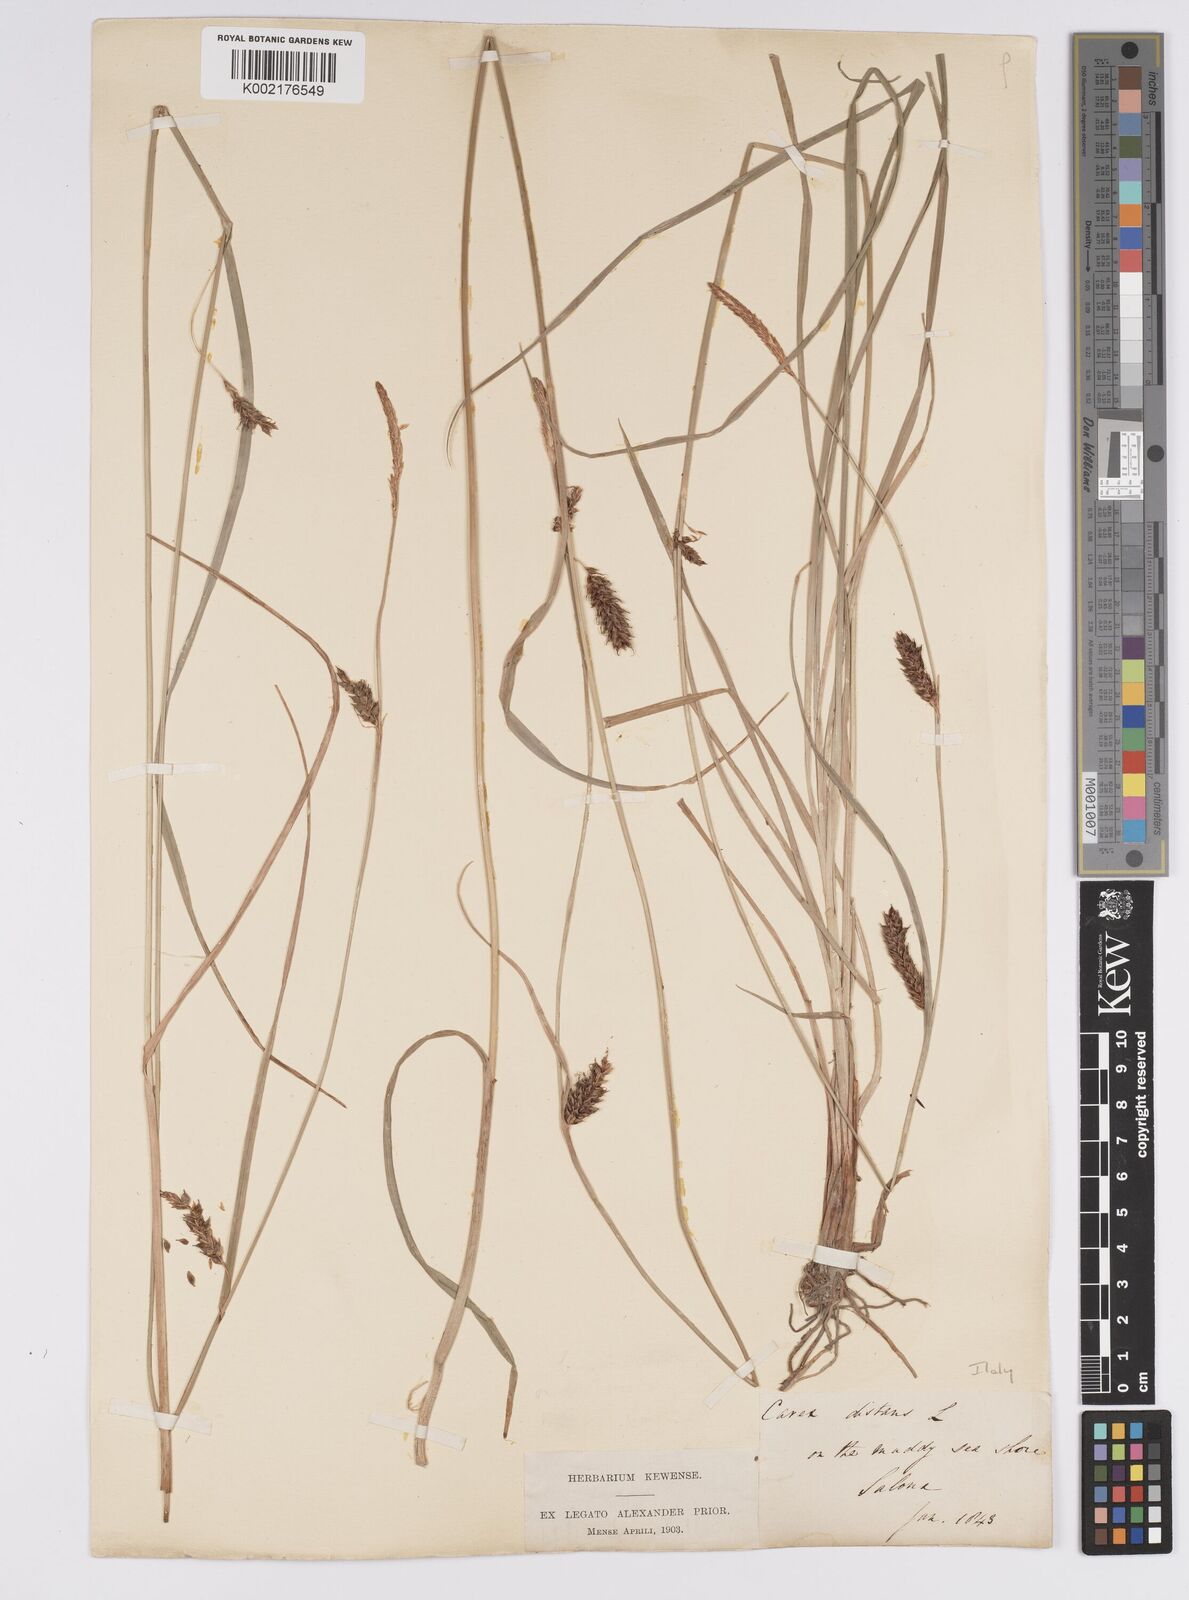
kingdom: Plantae
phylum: Tracheophyta
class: Liliopsida
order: Poales
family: Cyperaceae
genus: Carex
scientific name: Carex distans
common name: Distant sedge
